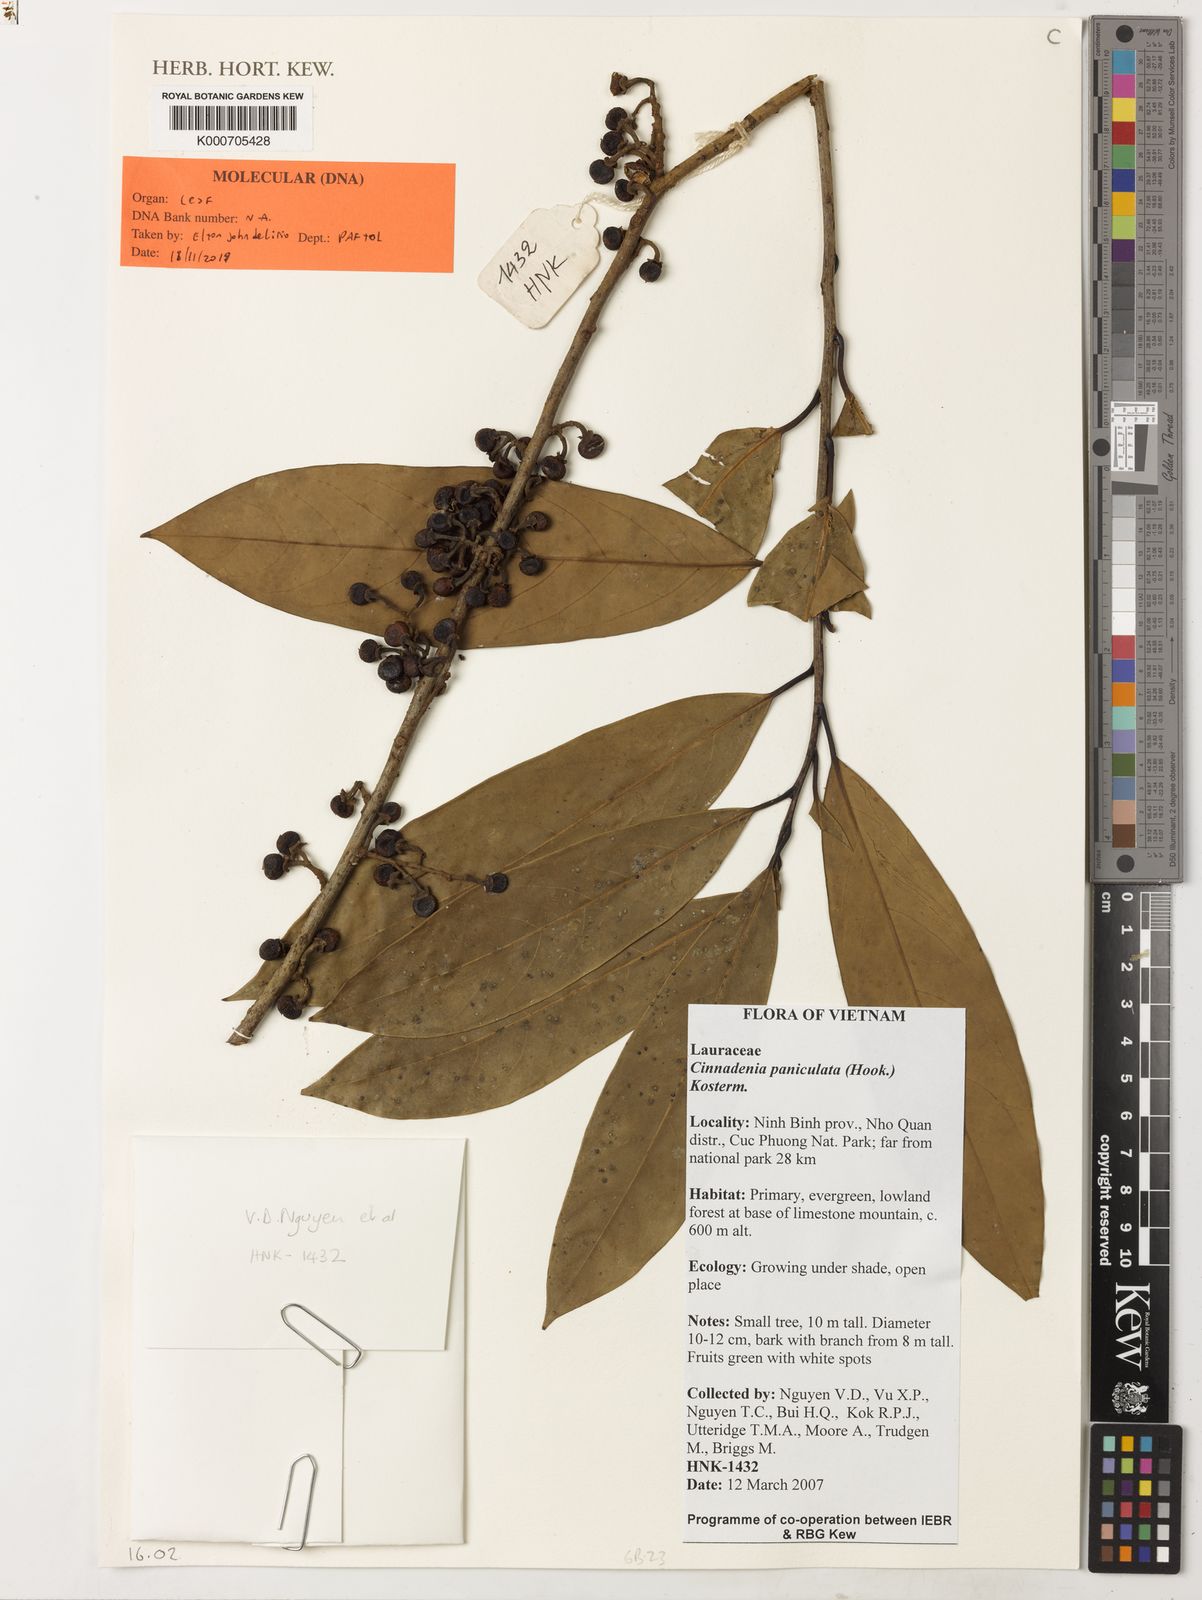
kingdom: Plantae
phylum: Tracheophyta
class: Magnoliopsida
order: Laurales
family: Lauraceae
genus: Cinnadenia
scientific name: Cinnadenia paniculata
